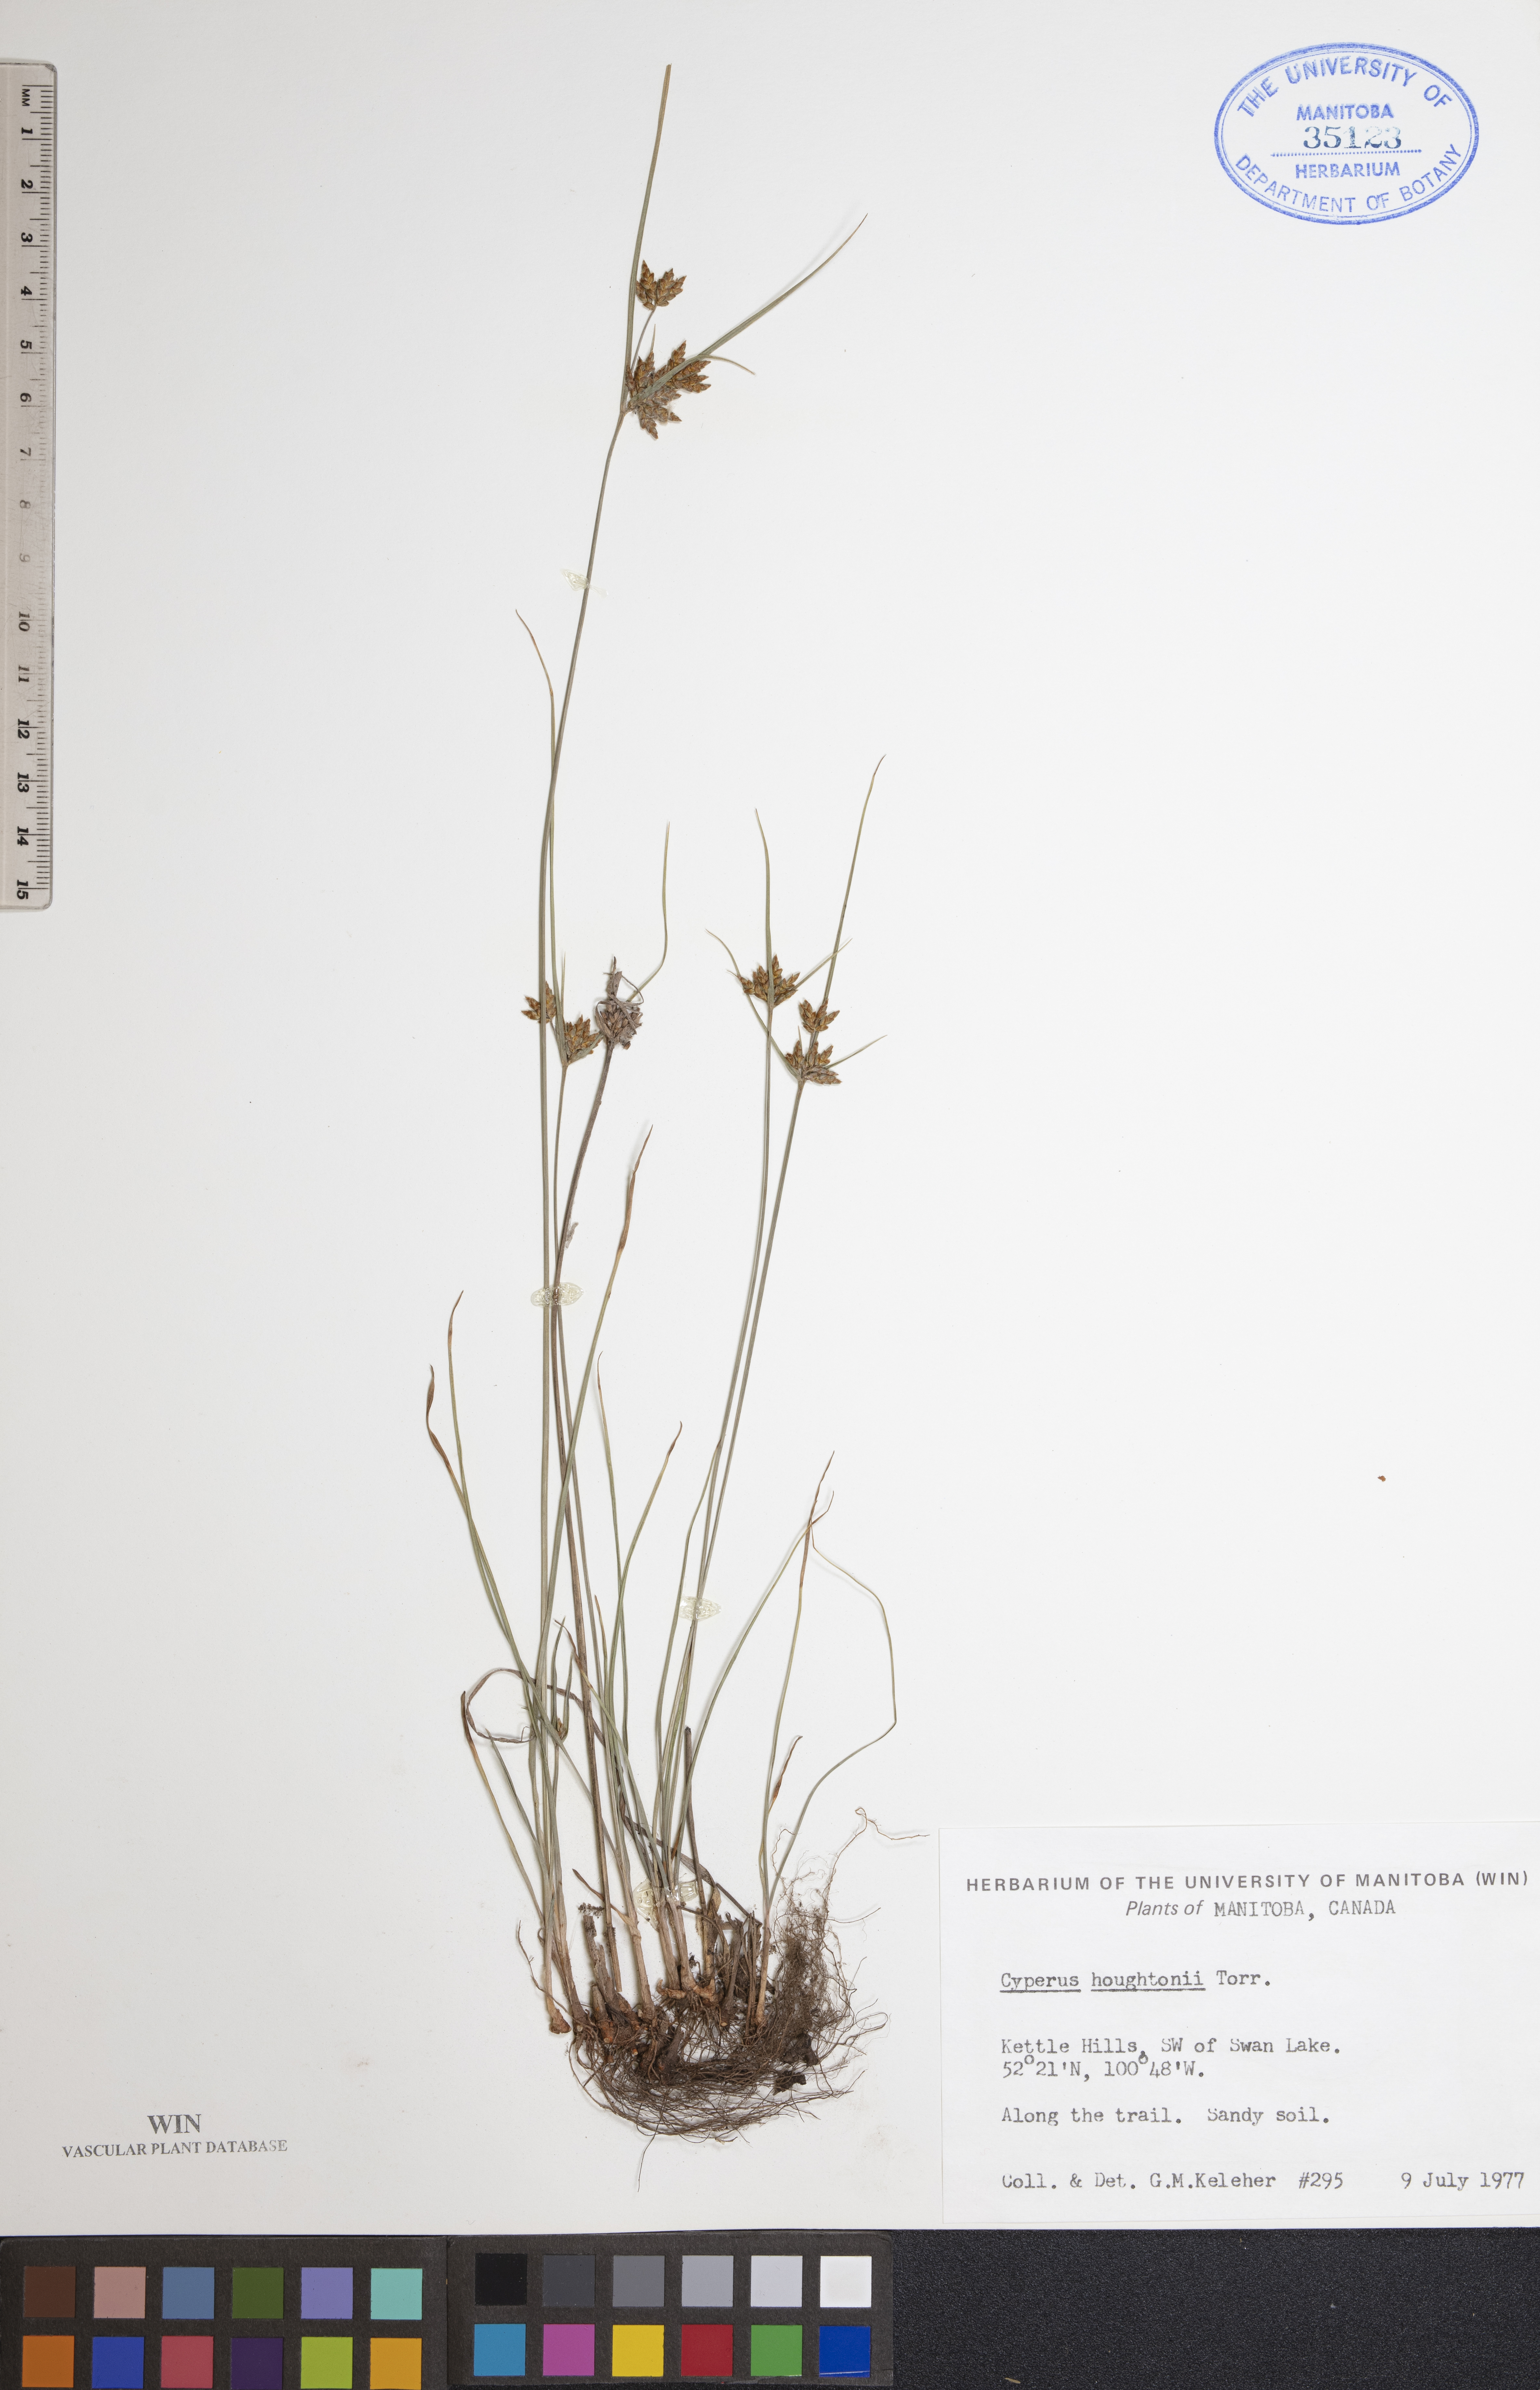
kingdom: Plantae
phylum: Tracheophyta
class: Liliopsida
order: Poales
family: Cyperaceae
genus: Cyperus
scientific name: Cyperus houghtonii
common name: Houghton's cyperus
